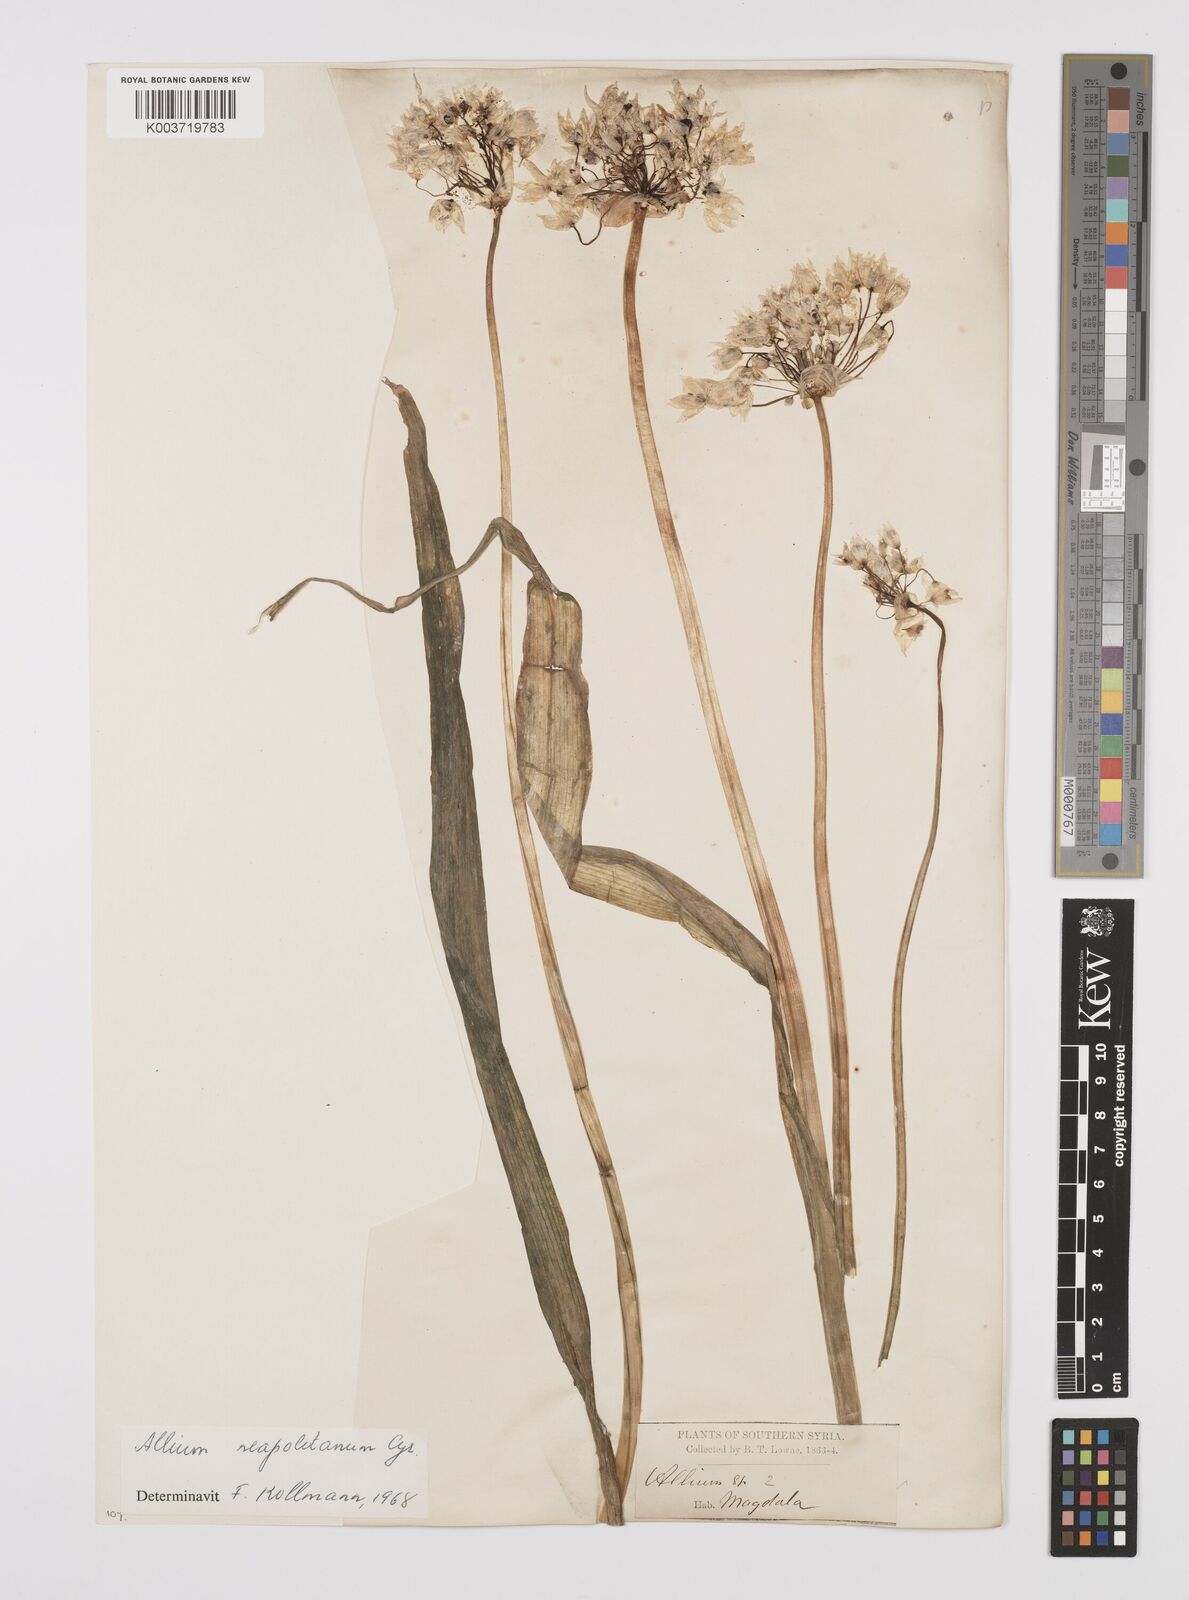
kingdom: Plantae
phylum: Tracheophyta
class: Liliopsida
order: Asparagales
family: Amaryllidaceae
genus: Allium
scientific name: Allium neapolitanum
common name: Neapolitan garlic
